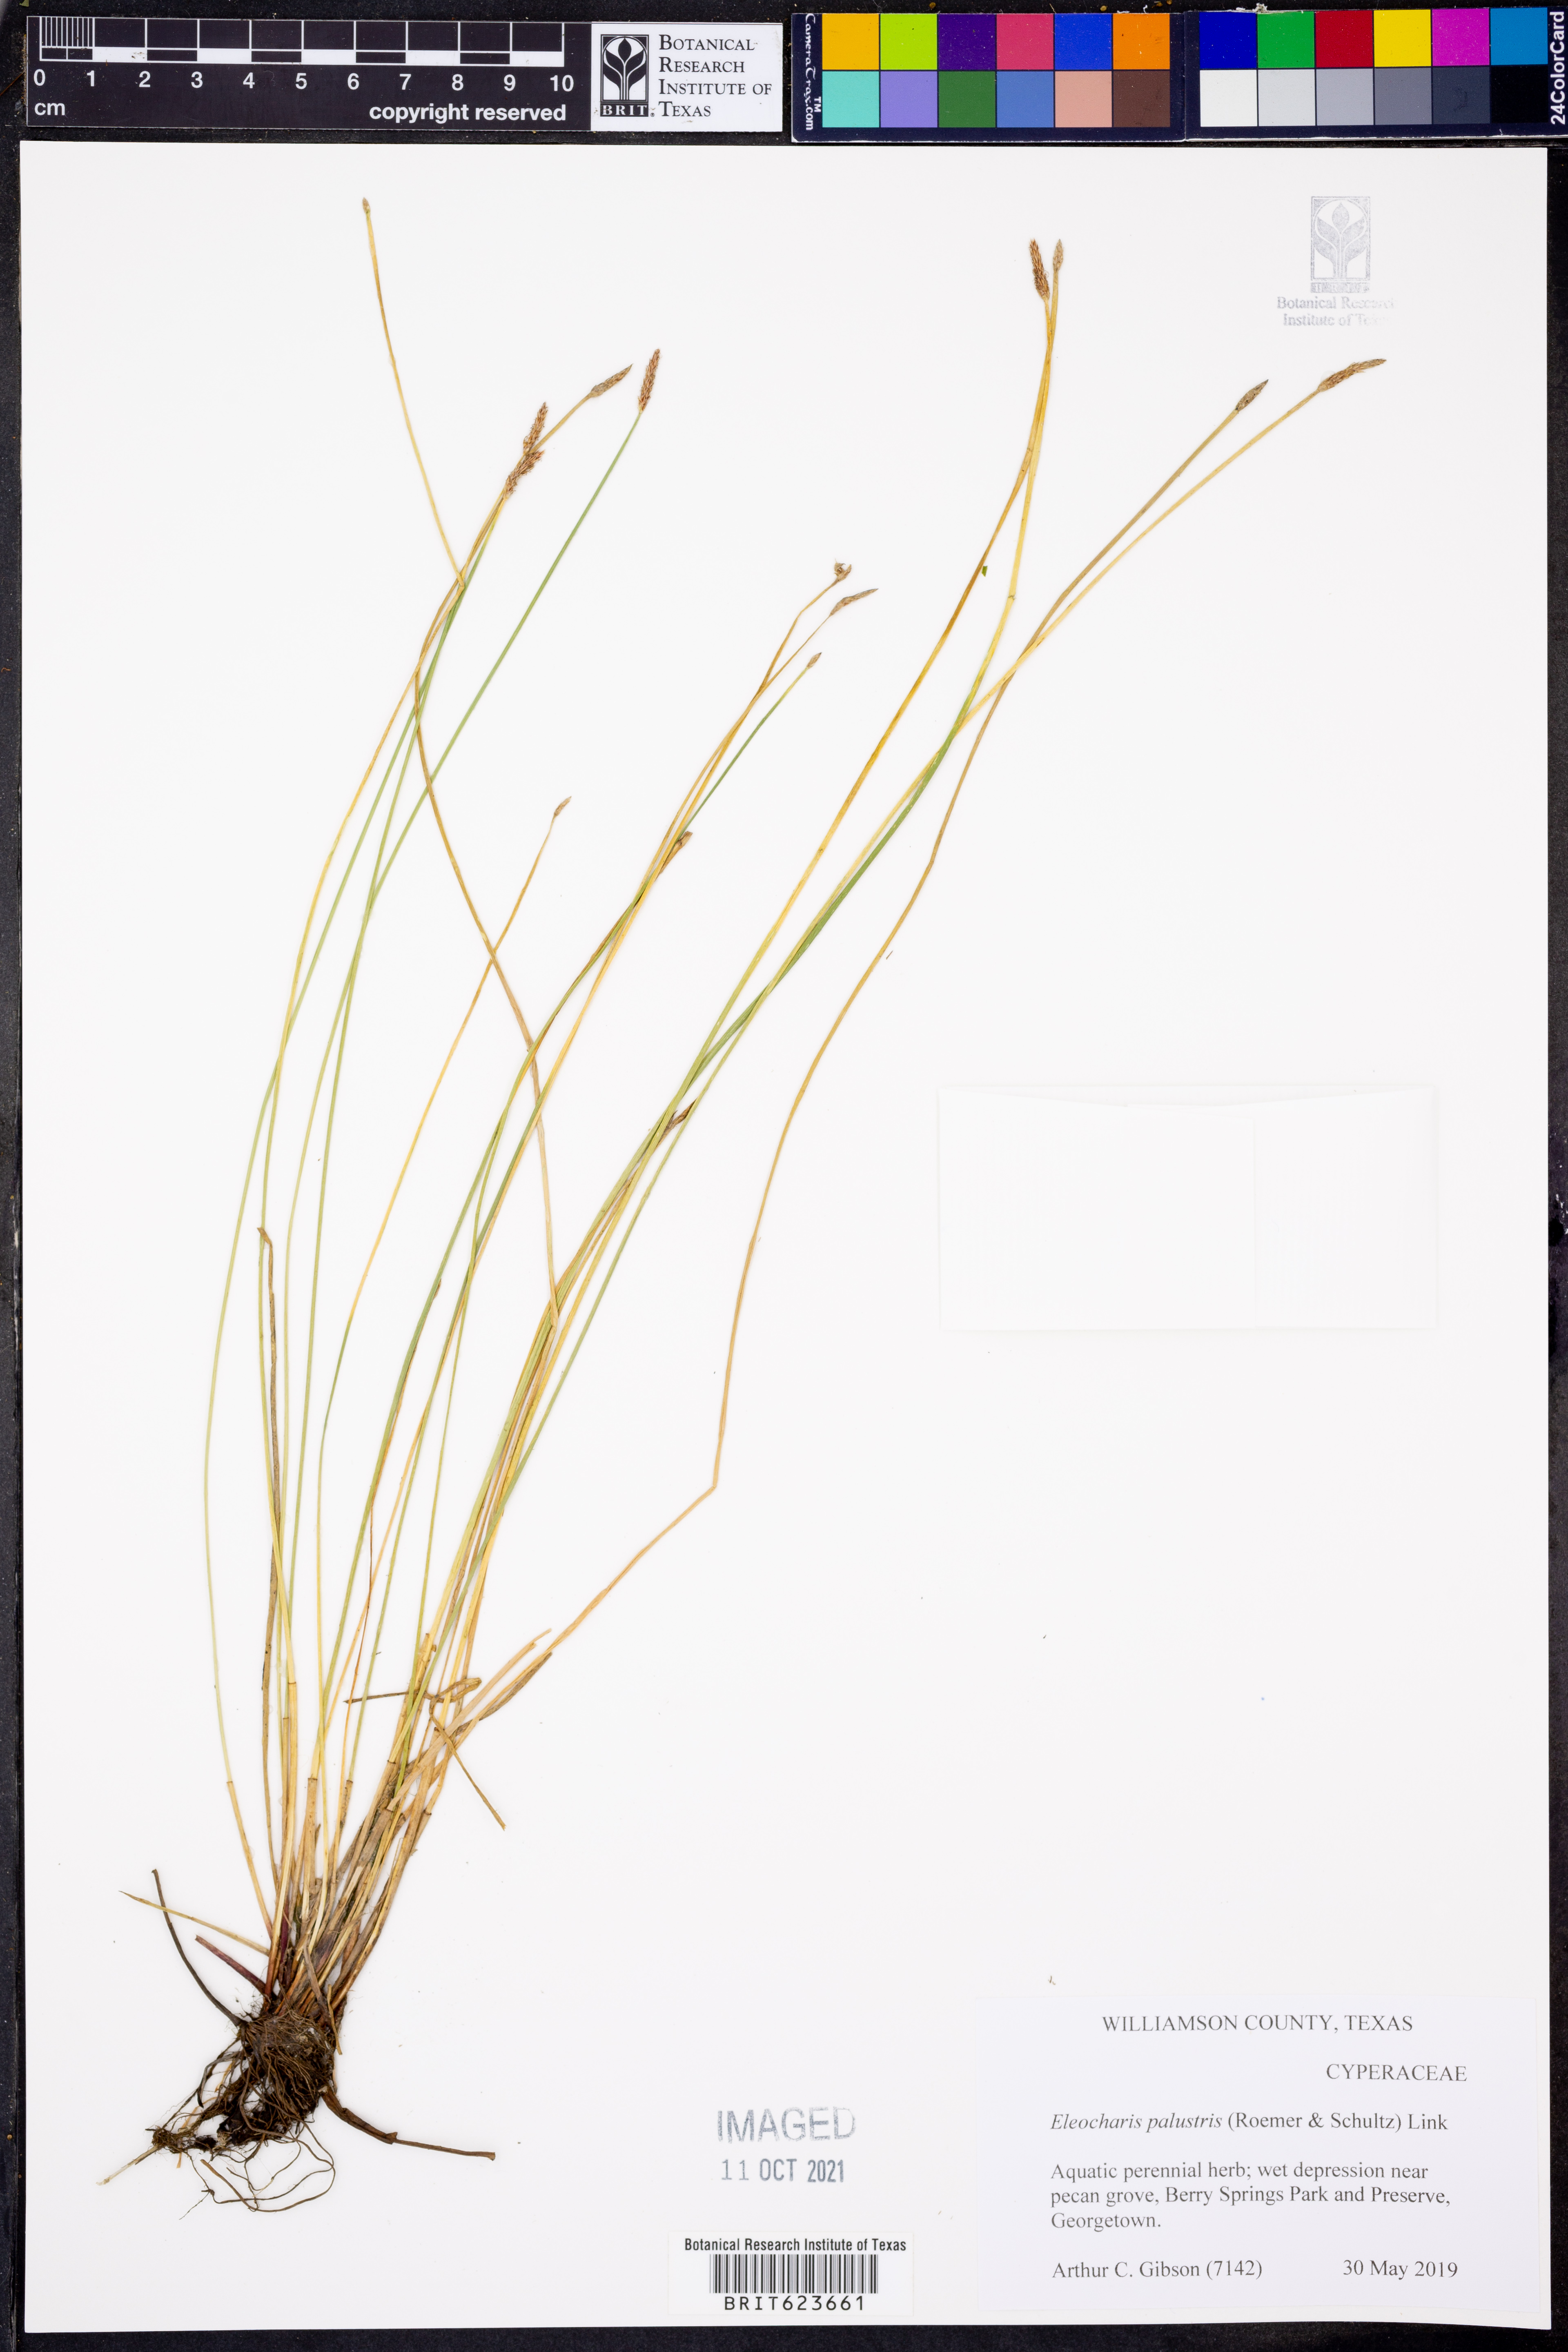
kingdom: Plantae
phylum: Tracheophyta
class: Liliopsida
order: Poales
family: Cyperaceae
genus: Eleocharis
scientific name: Eleocharis palustris
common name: Common spike-rush
